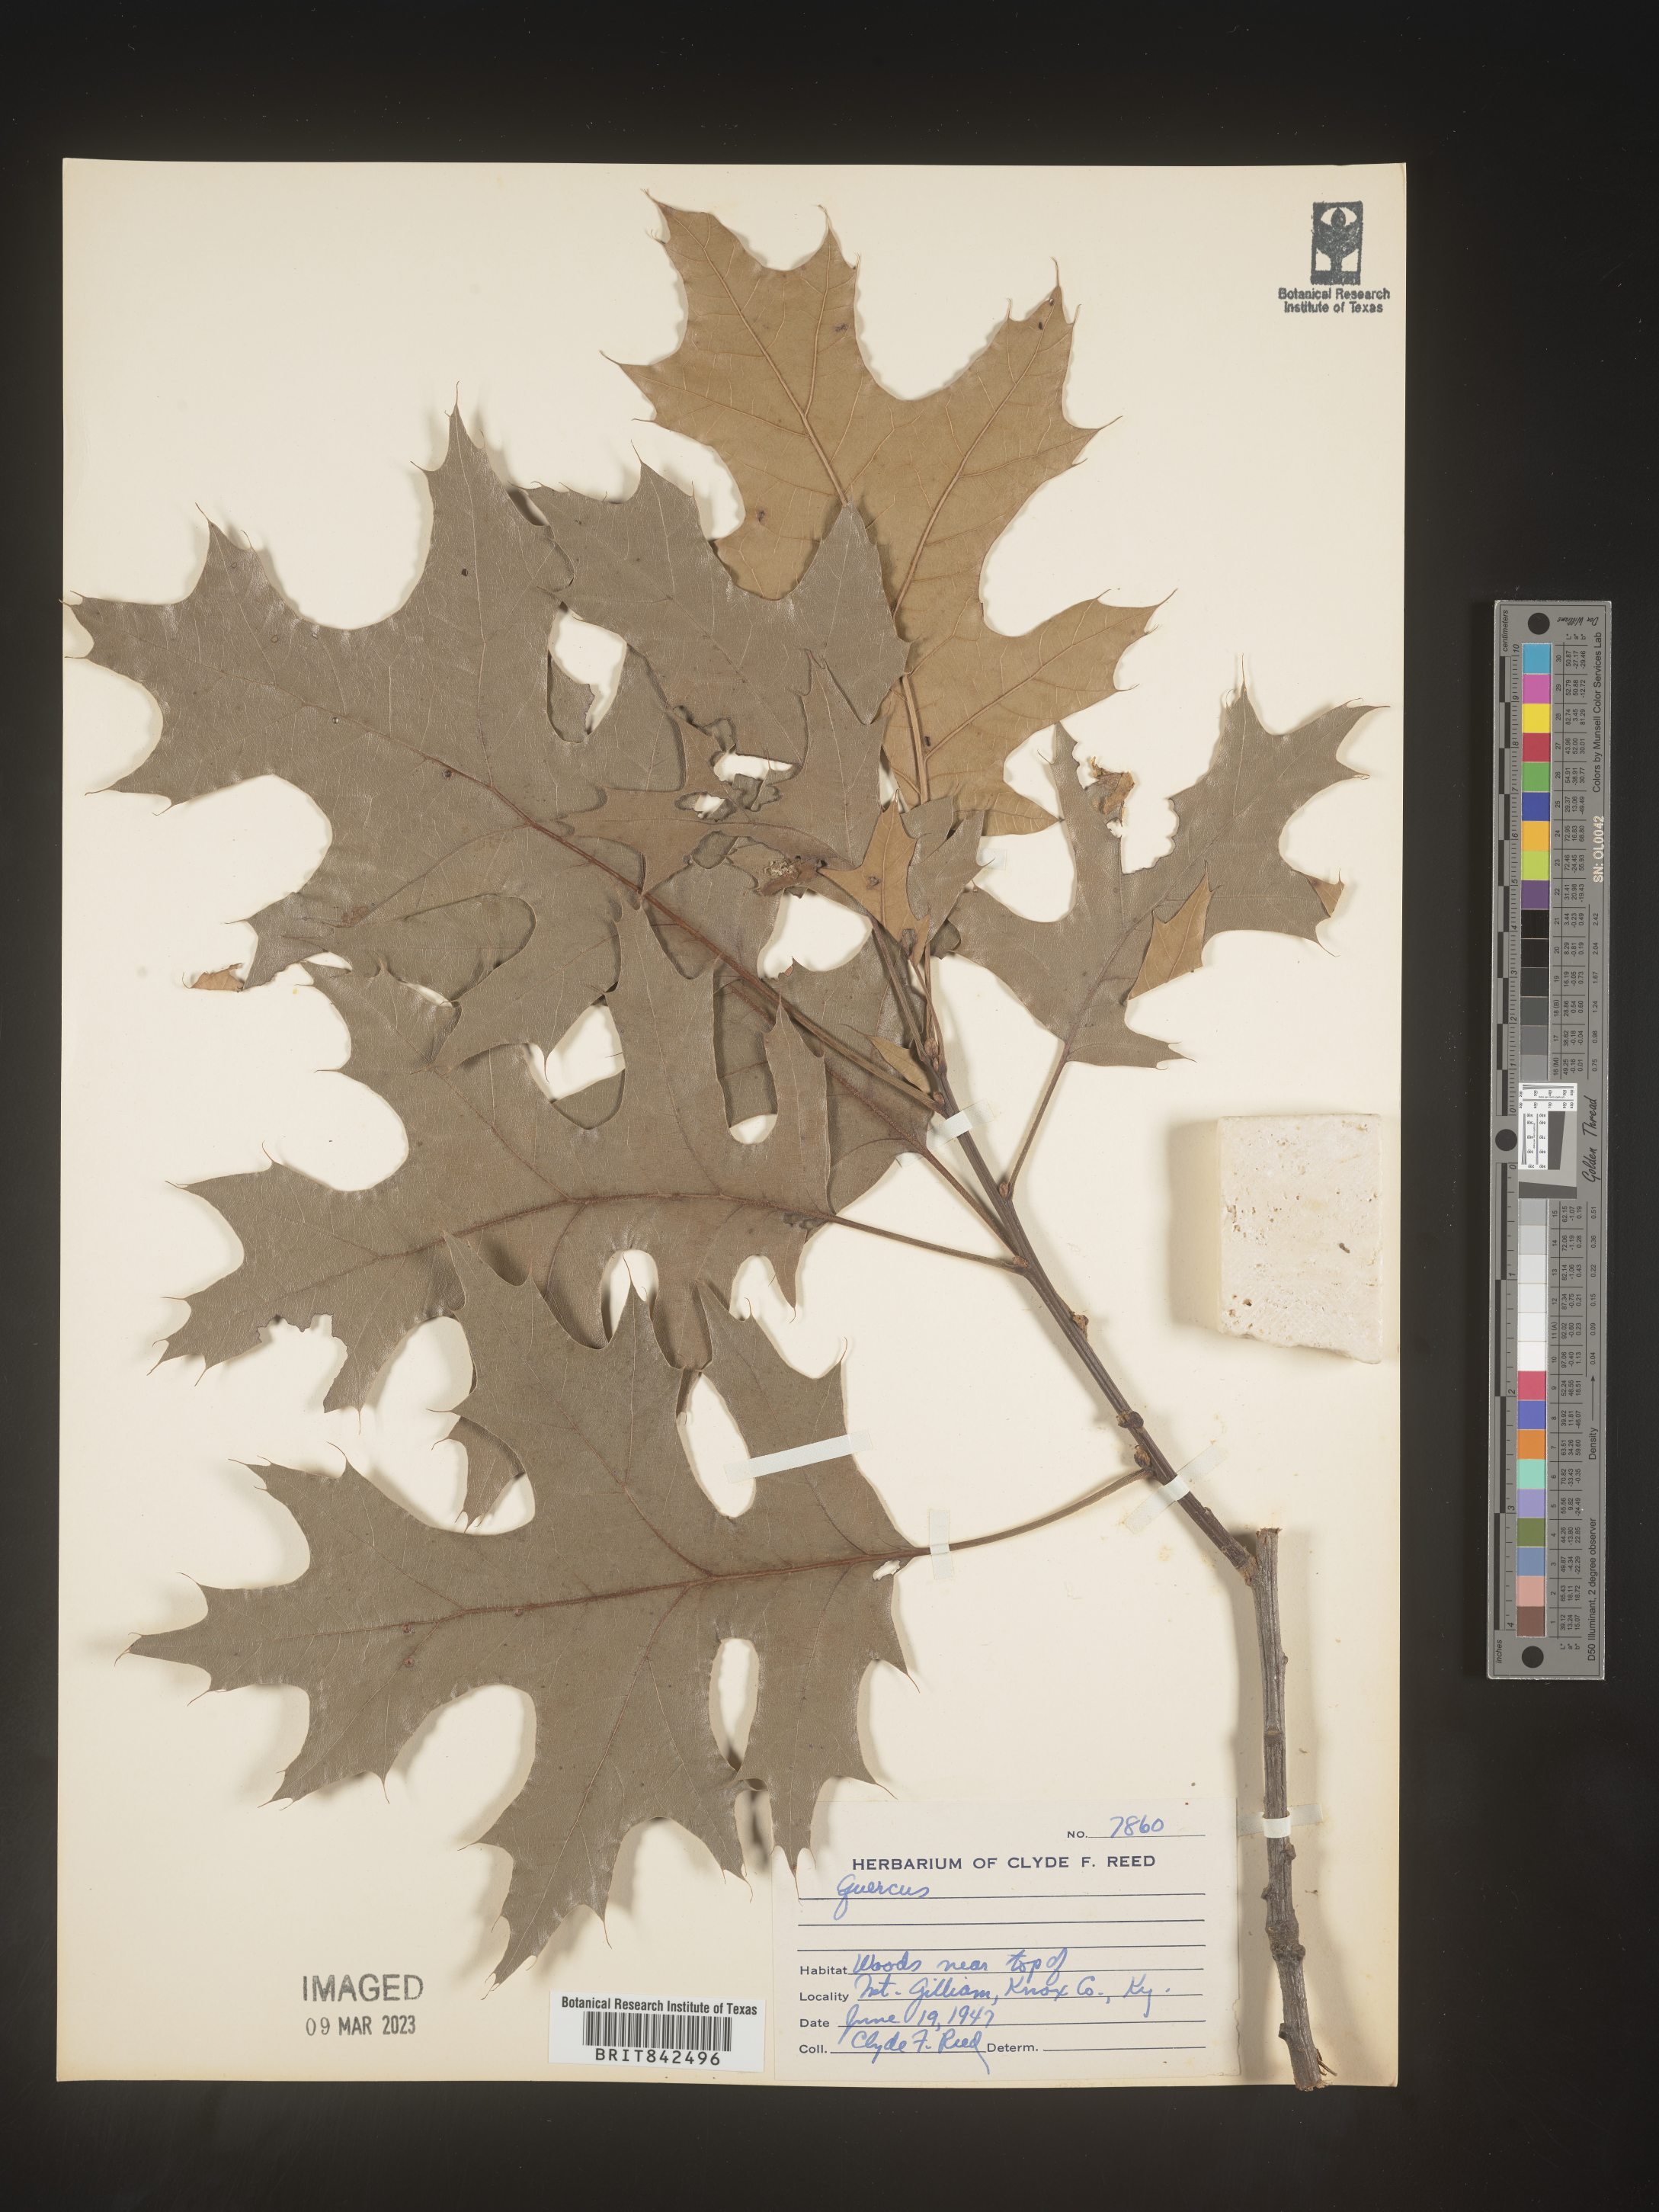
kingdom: Plantae
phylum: Tracheophyta
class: Magnoliopsida
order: Fagales
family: Fagaceae
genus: Quercus
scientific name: Quercus
